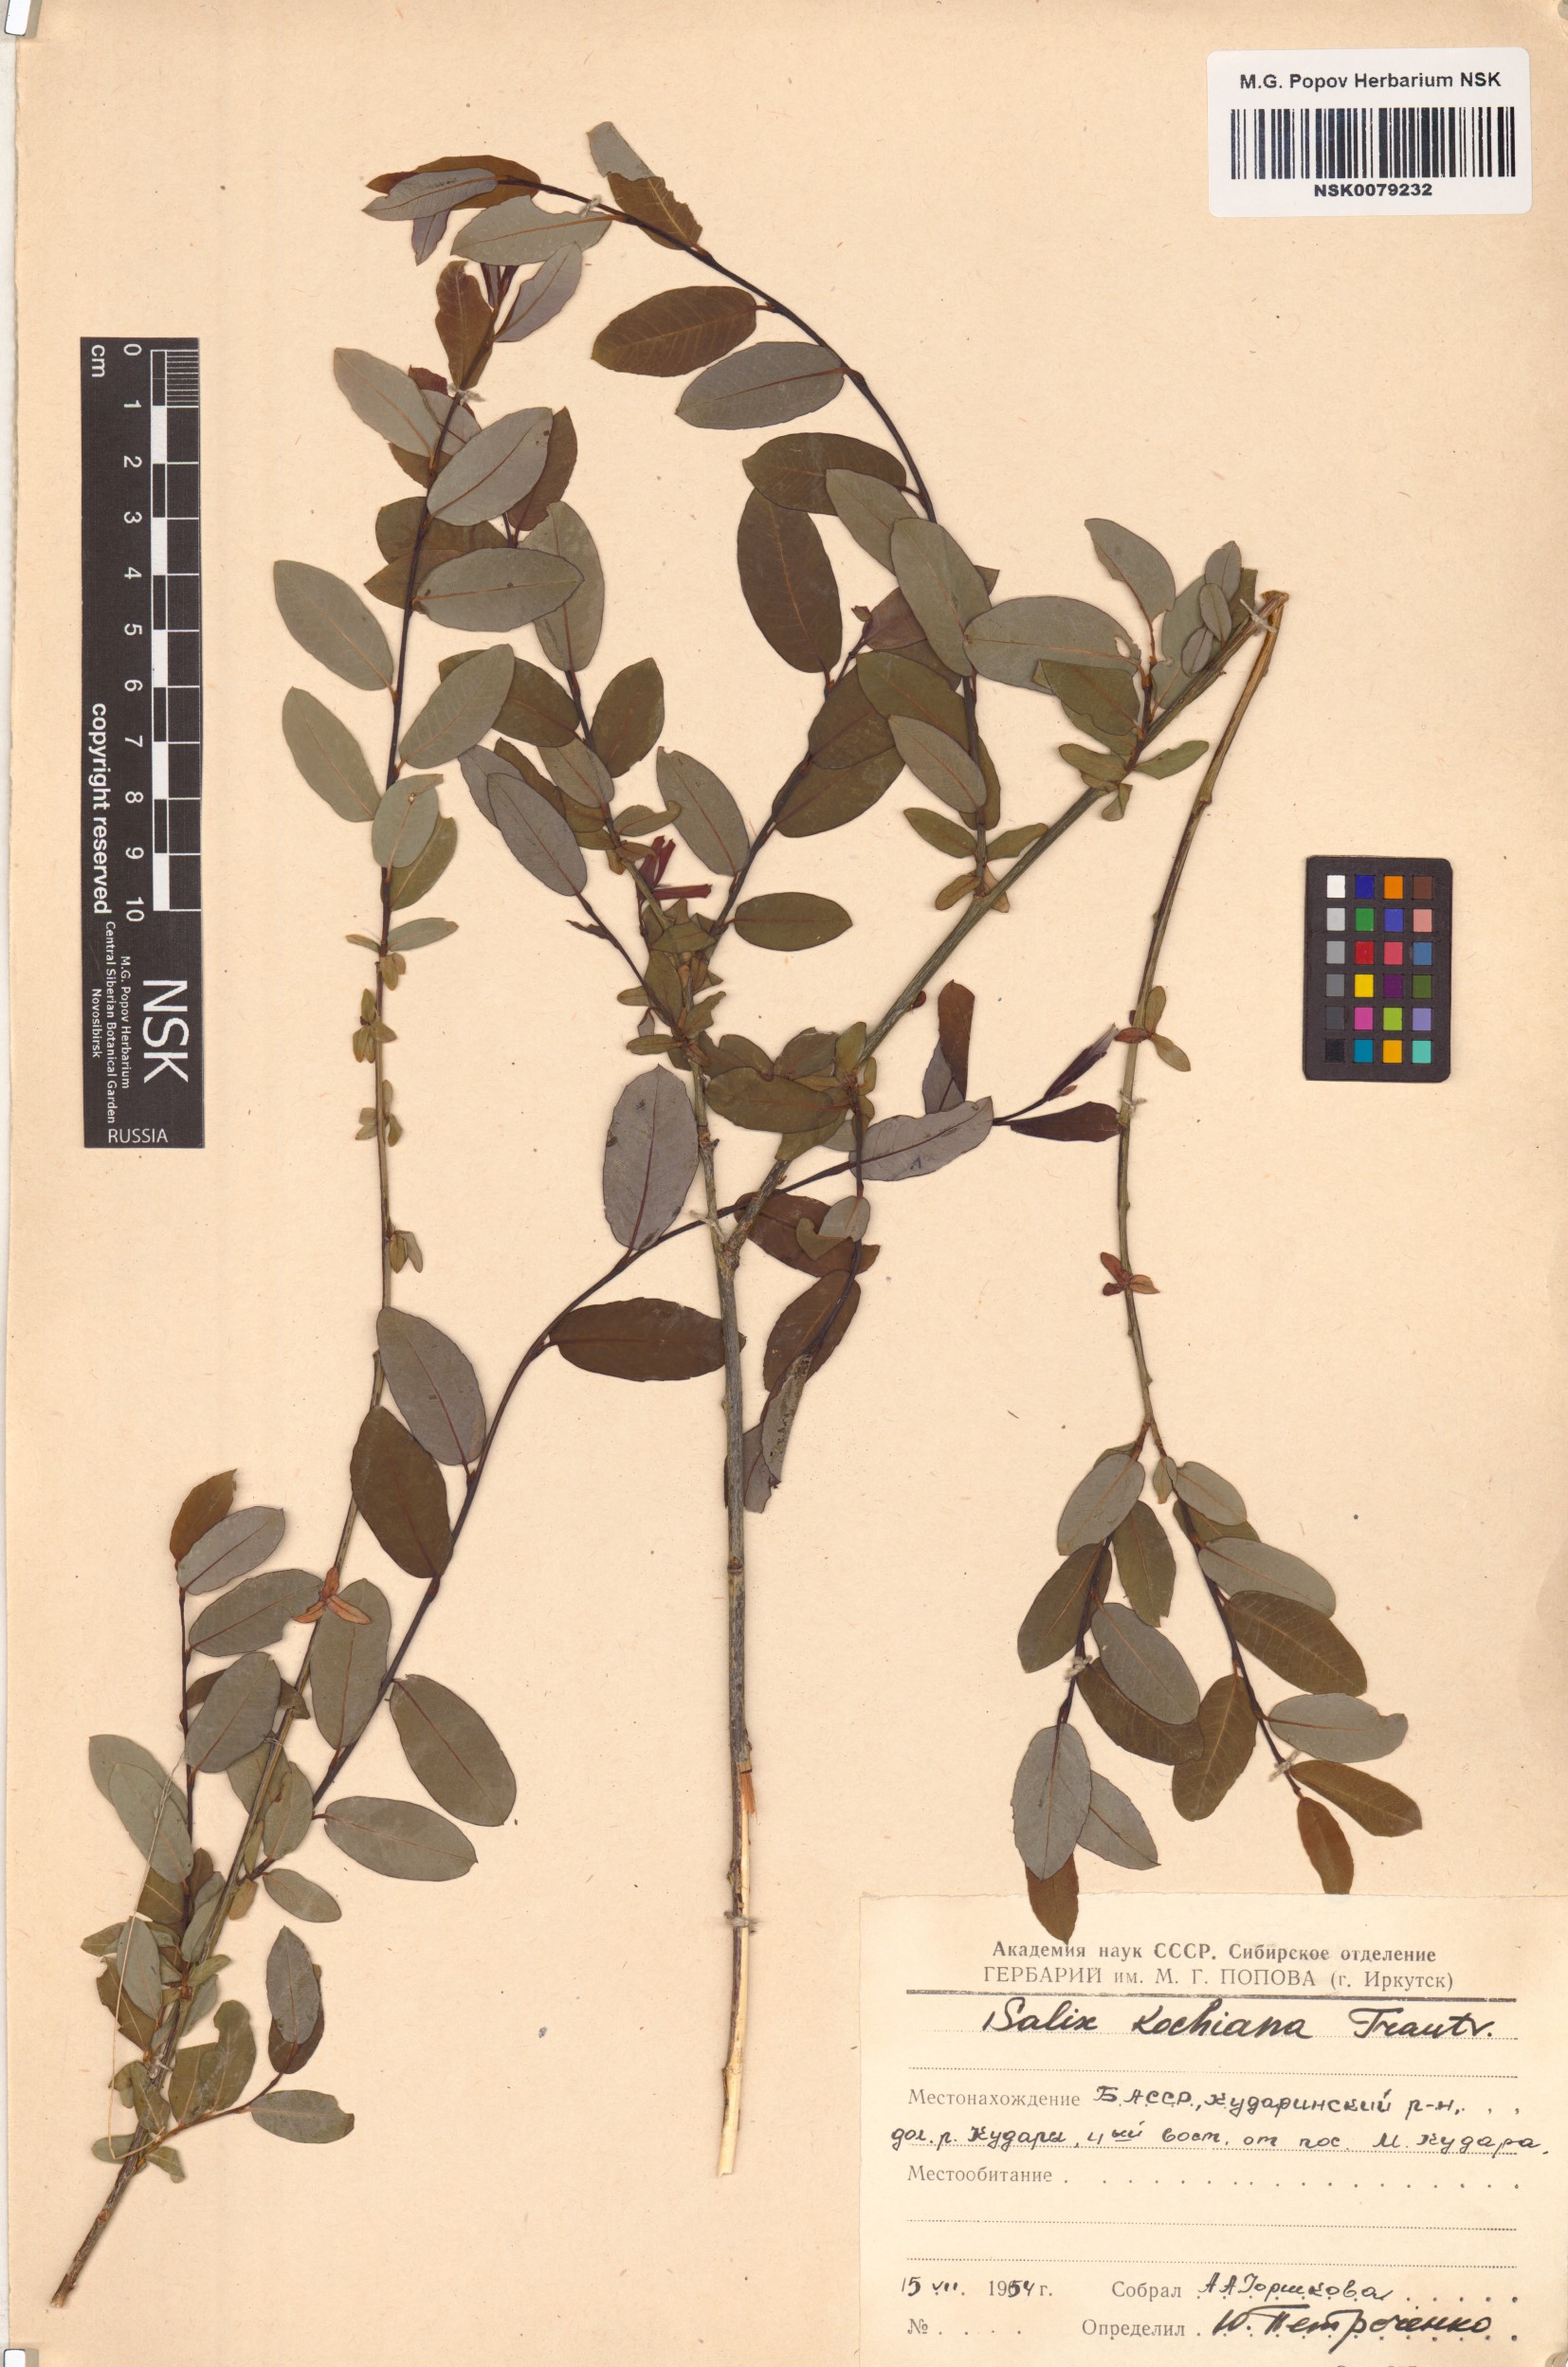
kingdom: Plantae
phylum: Tracheophyta
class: Magnoliopsida
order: Malpighiales
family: Salicaceae
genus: Salix
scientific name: Salix kochiana
